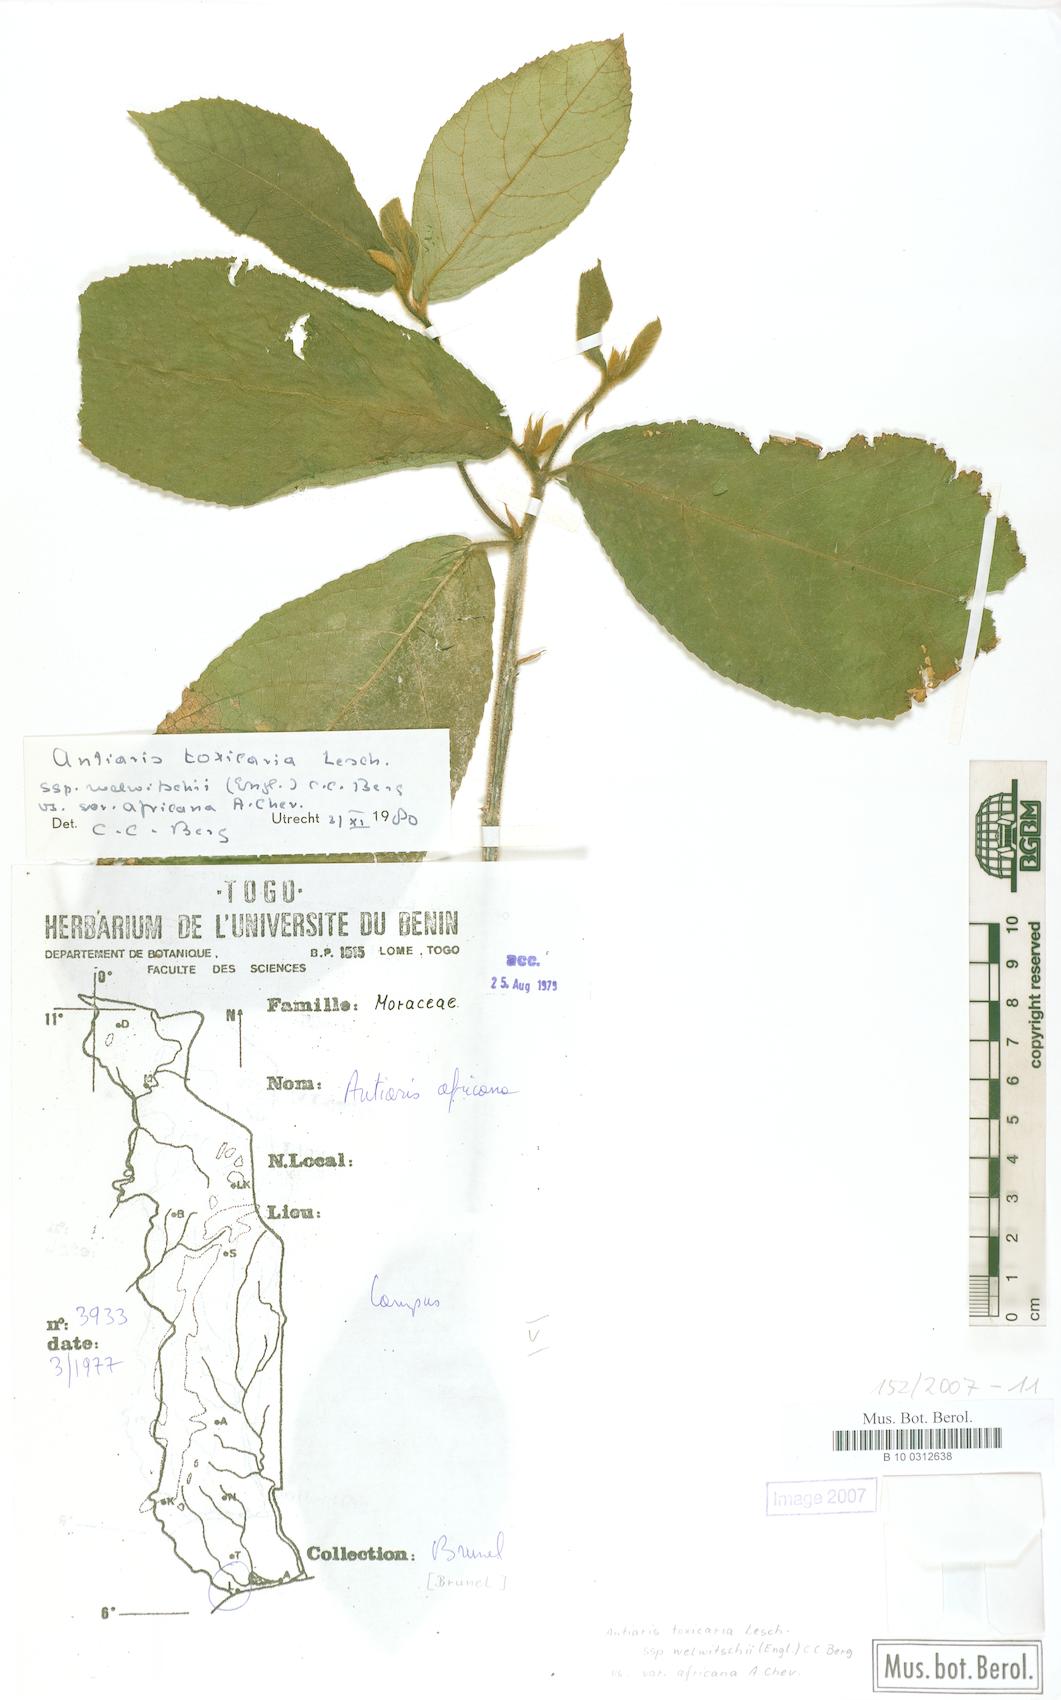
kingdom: Plantae
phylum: Tracheophyta
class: Magnoliopsida
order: Rosales
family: Moraceae
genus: Antiaris
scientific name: Antiaris toxicaria
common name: Sackingtree
